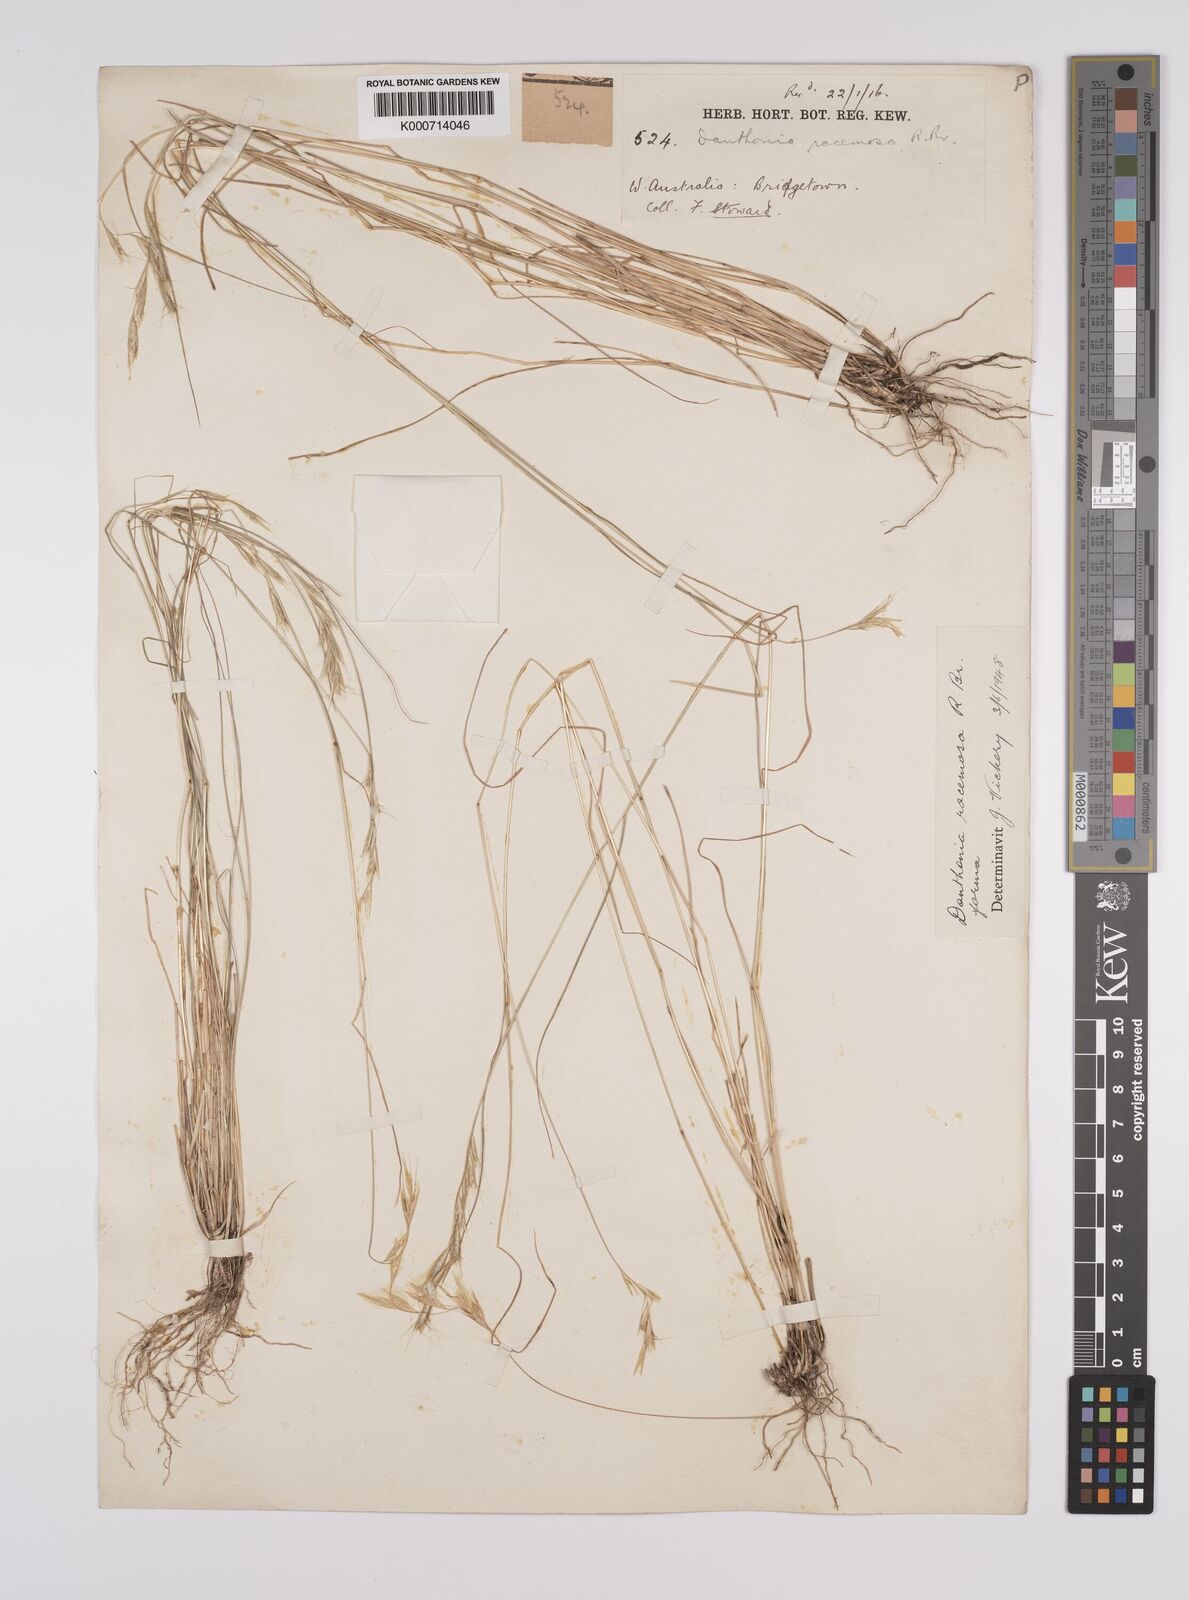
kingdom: Plantae
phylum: Tracheophyta
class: Liliopsida
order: Poales
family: Poaceae
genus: Rytidosperma
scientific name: Rytidosperma racemosum
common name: Wallaby-grass
